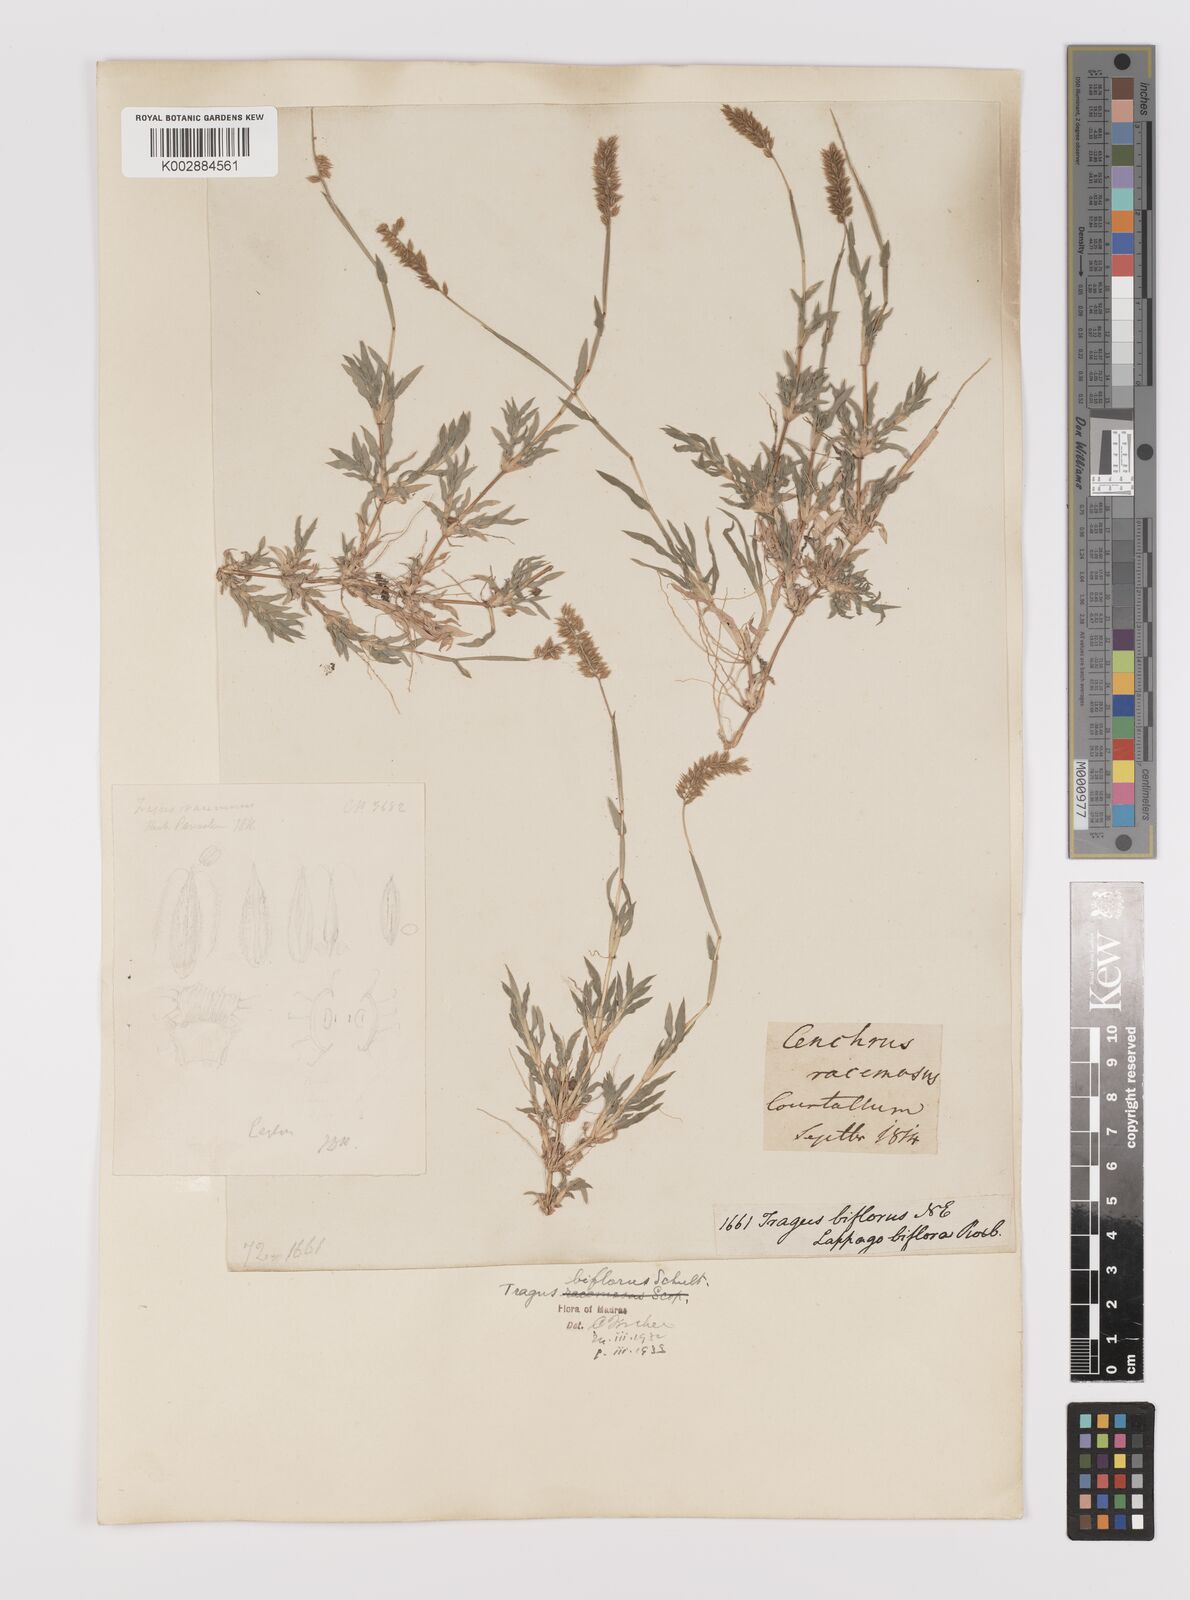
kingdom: Plantae
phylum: Tracheophyta
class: Liliopsida
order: Poales
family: Poaceae
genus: Tragus
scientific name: Tragus mongolorum
